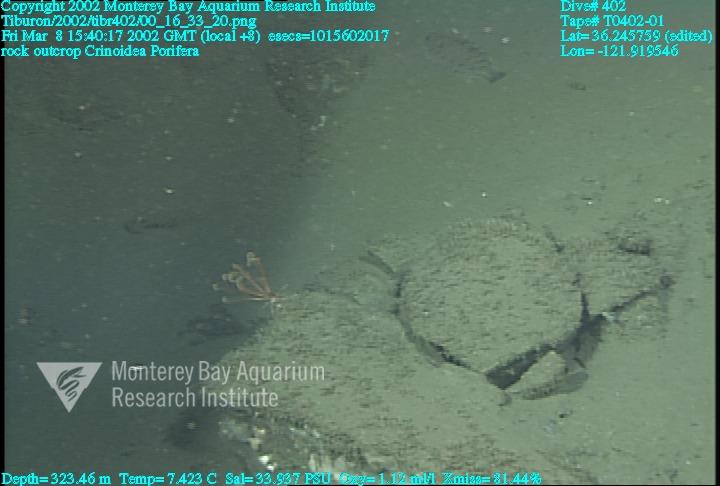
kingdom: Animalia
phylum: Porifera
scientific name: Porifera
